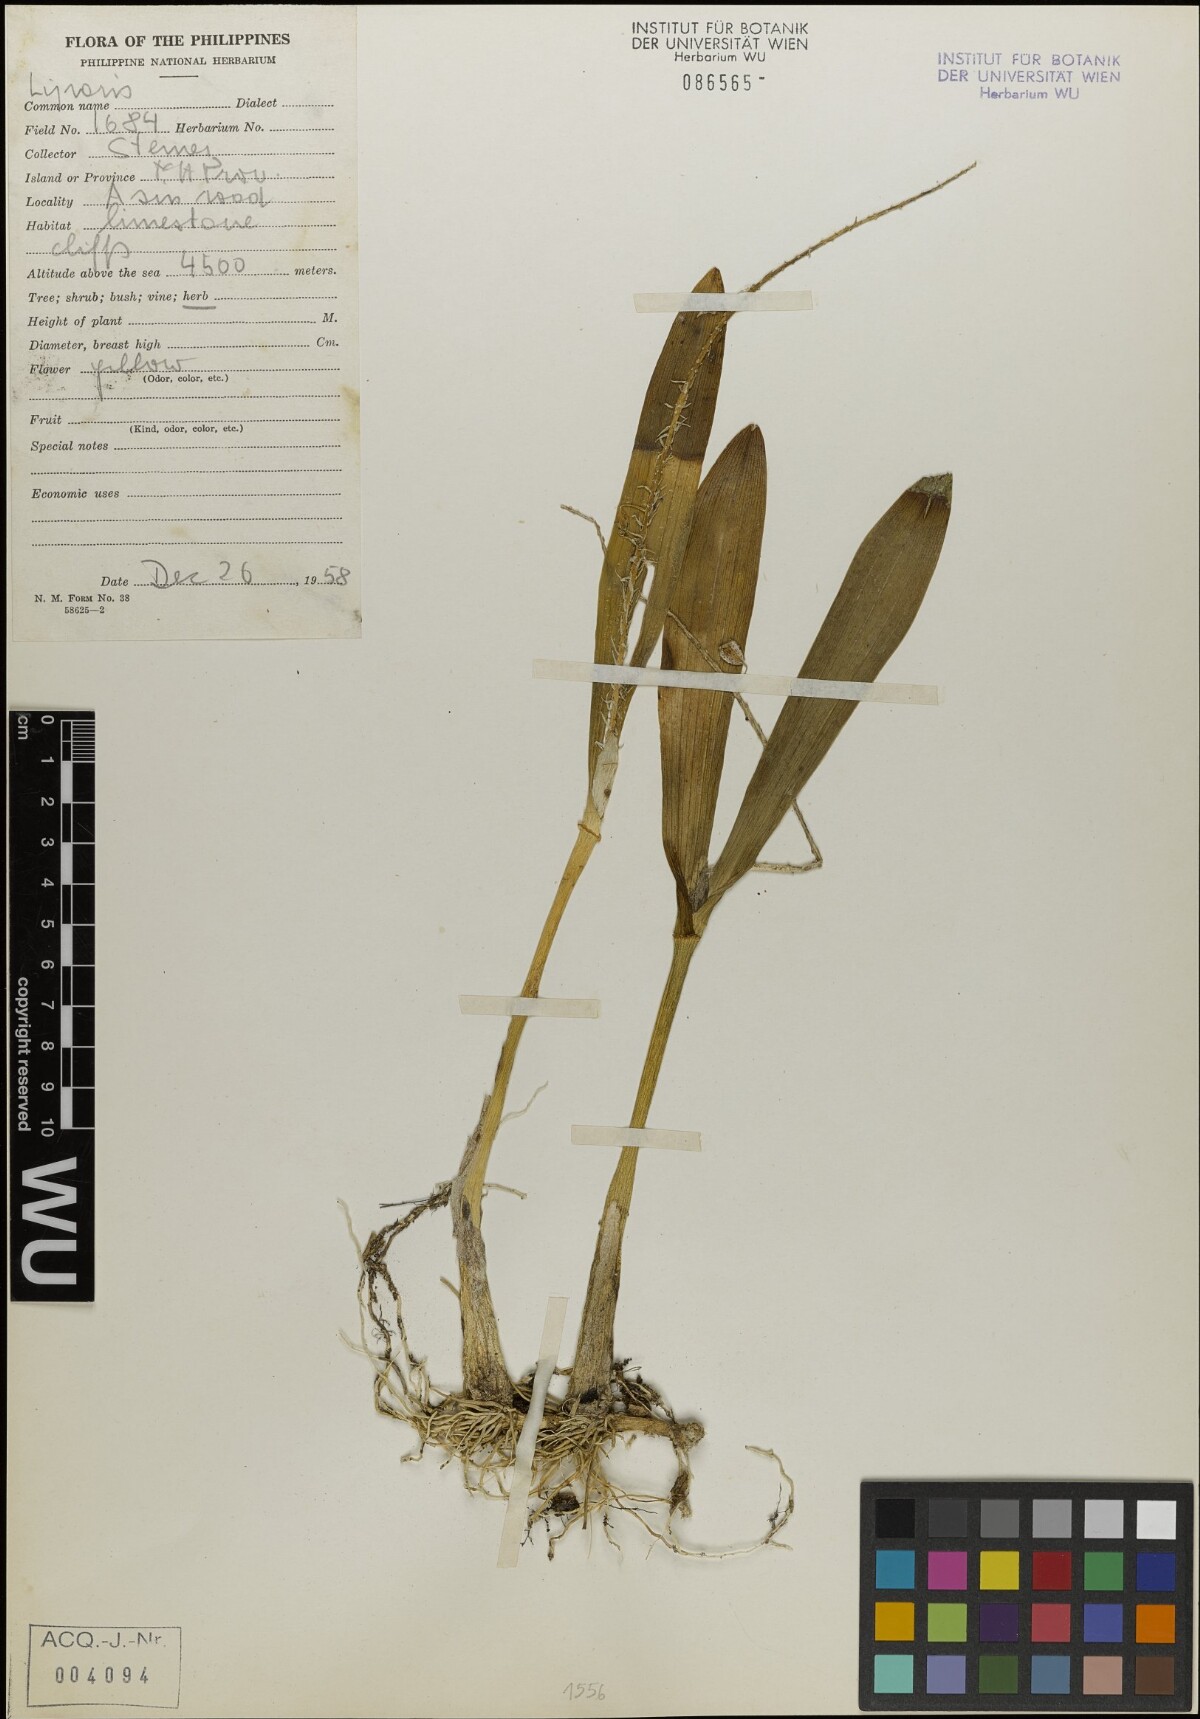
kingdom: Plantae
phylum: Tracheophyta
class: Liliopsida
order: Asparagales
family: Orchidaceae
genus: Liparis
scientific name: Liparis
